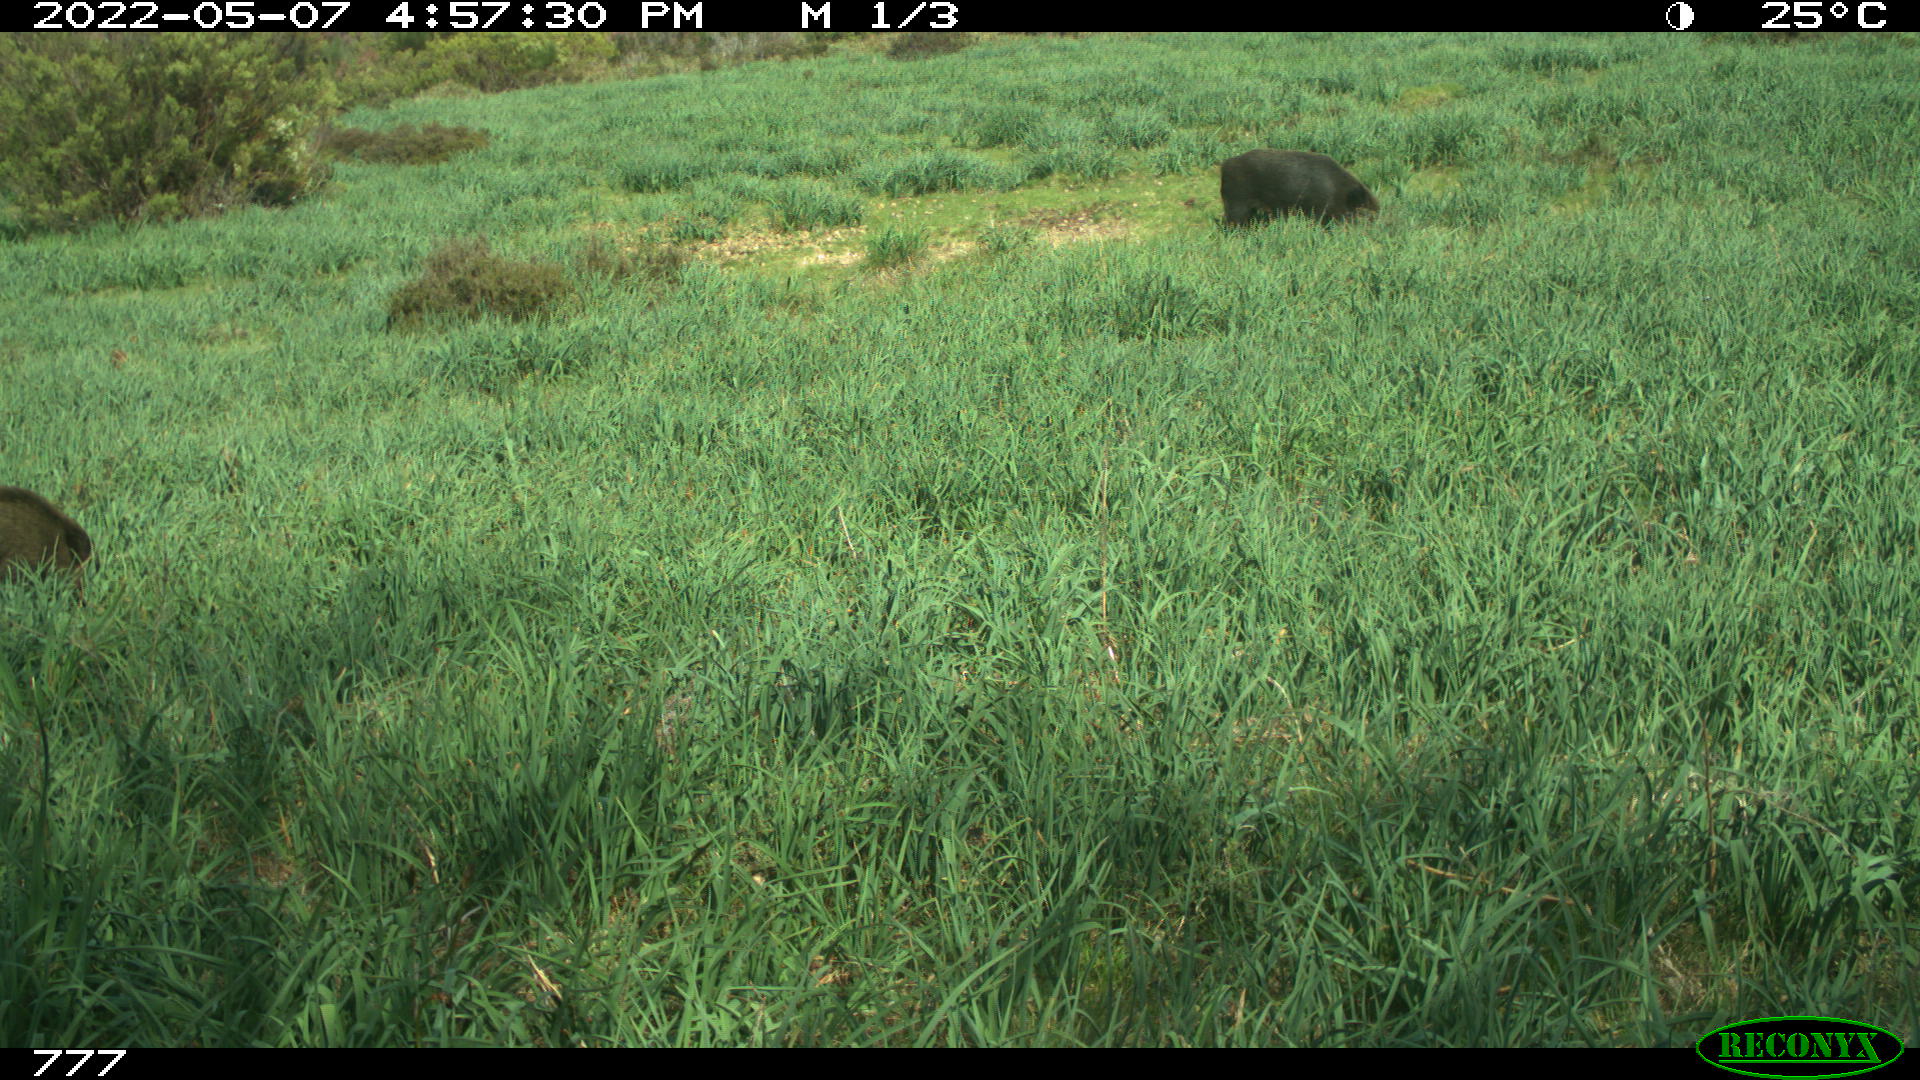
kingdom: Animalia
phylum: Chordata
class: Mammalia
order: Artiodactyla
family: Suidae
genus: Sus
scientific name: Sus scrofa
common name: Wild boar
